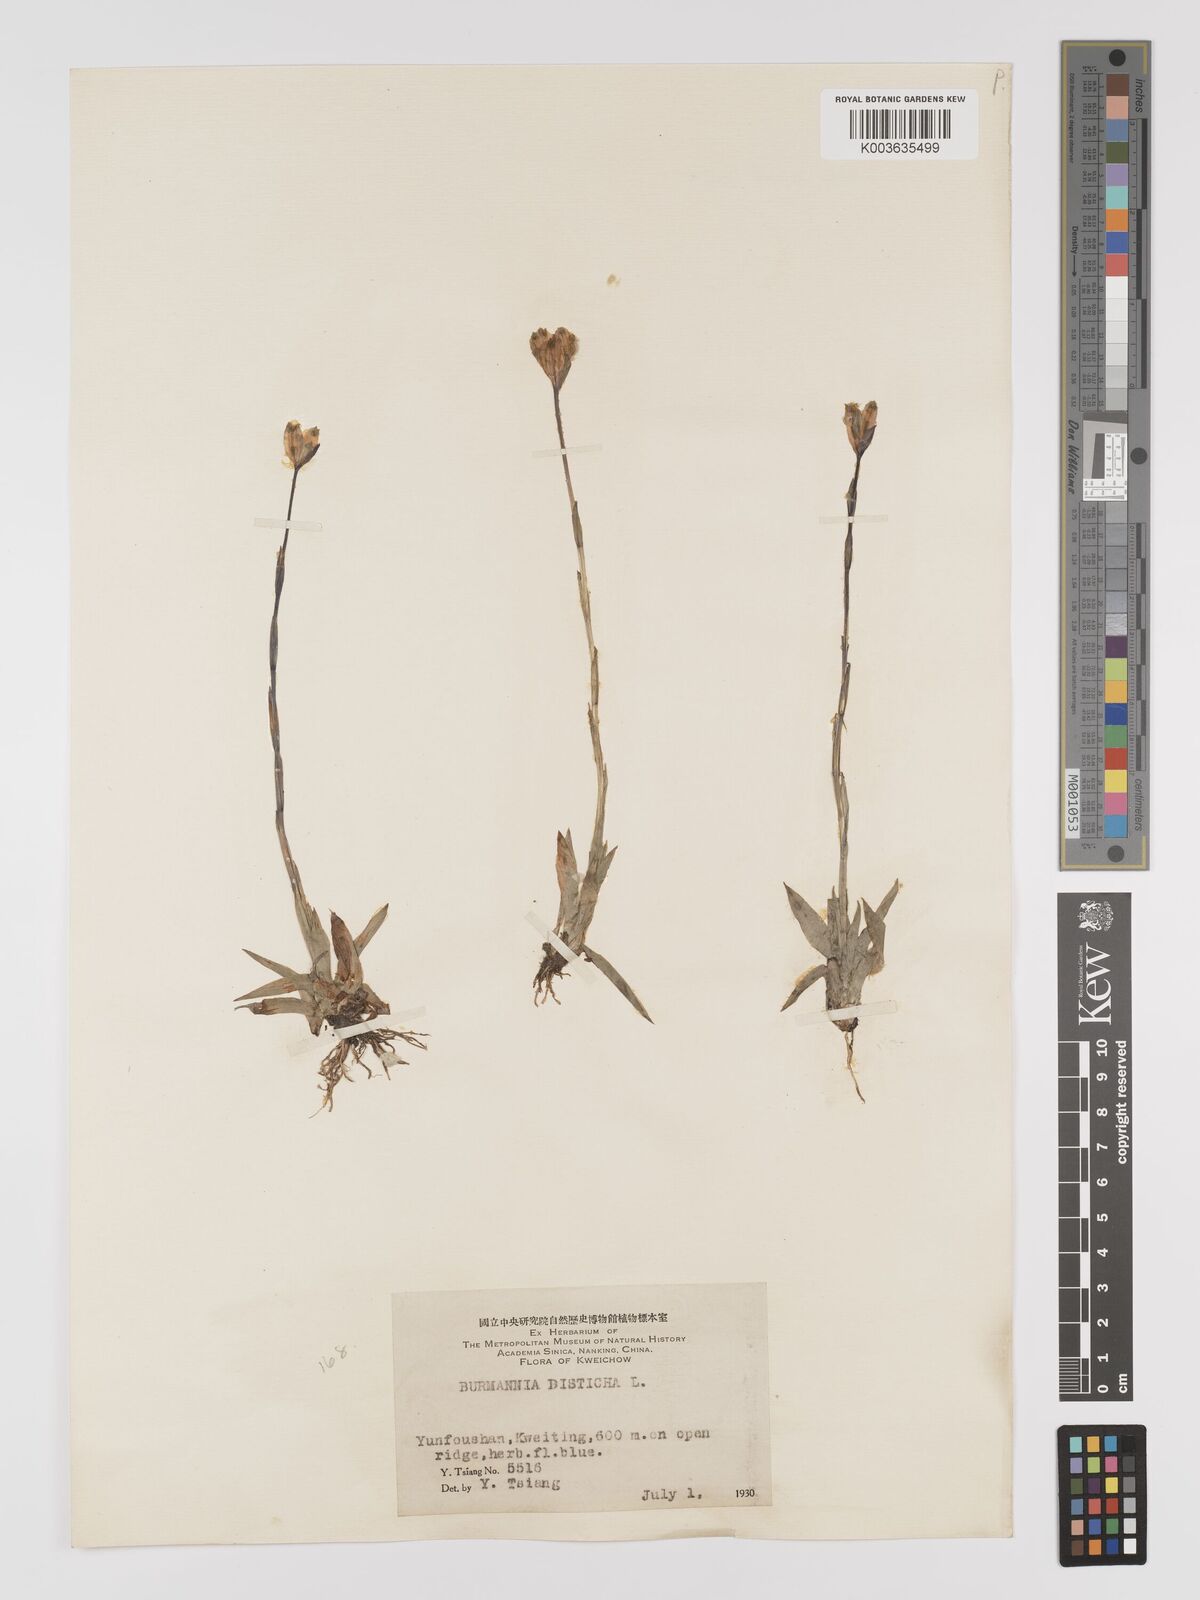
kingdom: Plantae
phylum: Tracheophyta
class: Liliopsida
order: Dioscoreales
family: Burmanniaceae
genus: Burmannia
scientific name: Burmannia disticha
